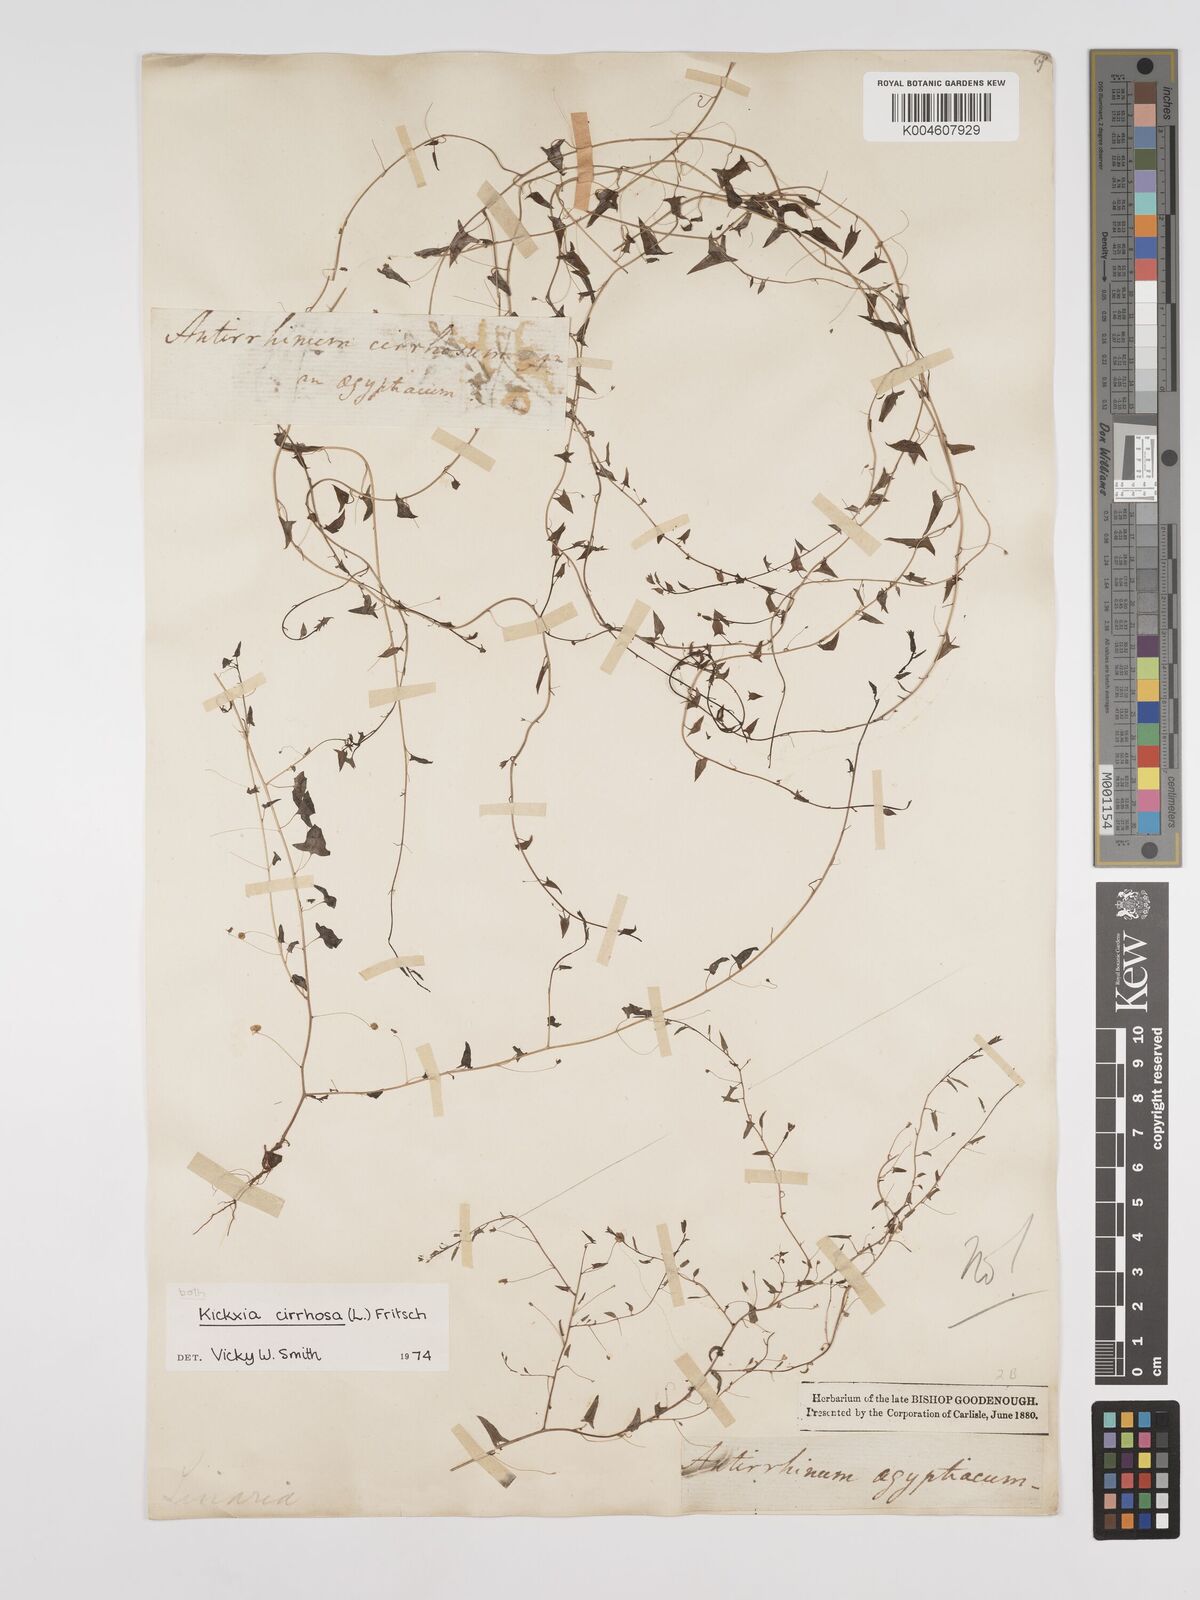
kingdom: Plantae
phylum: Tracheophyta
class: Magnoliopsida
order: Lamiales
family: Plantaginaceae
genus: Kickxia
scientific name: Kickxia cirrhosa
